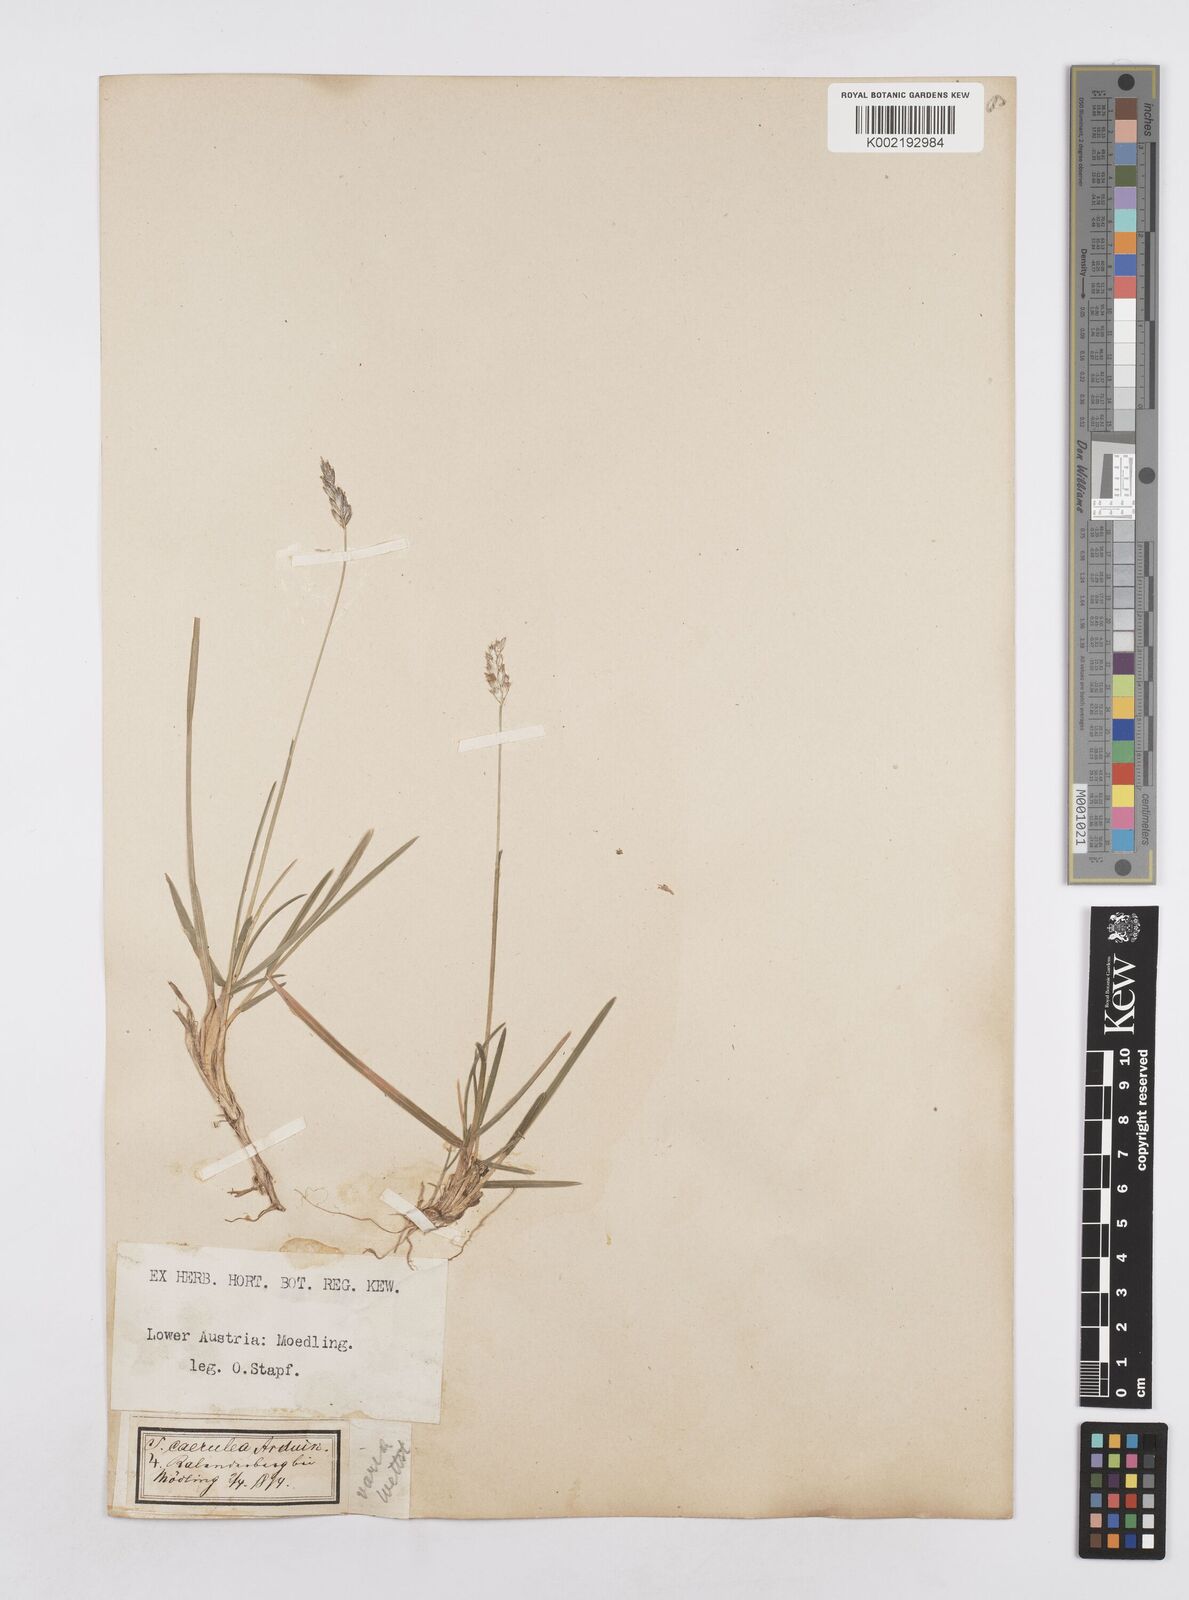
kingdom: Plantae
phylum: Tracheophyta
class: Liliopsida
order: Poales
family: Poaceae
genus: Sesleria
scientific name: Sesleria caerulea
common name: Blue moor-grass
